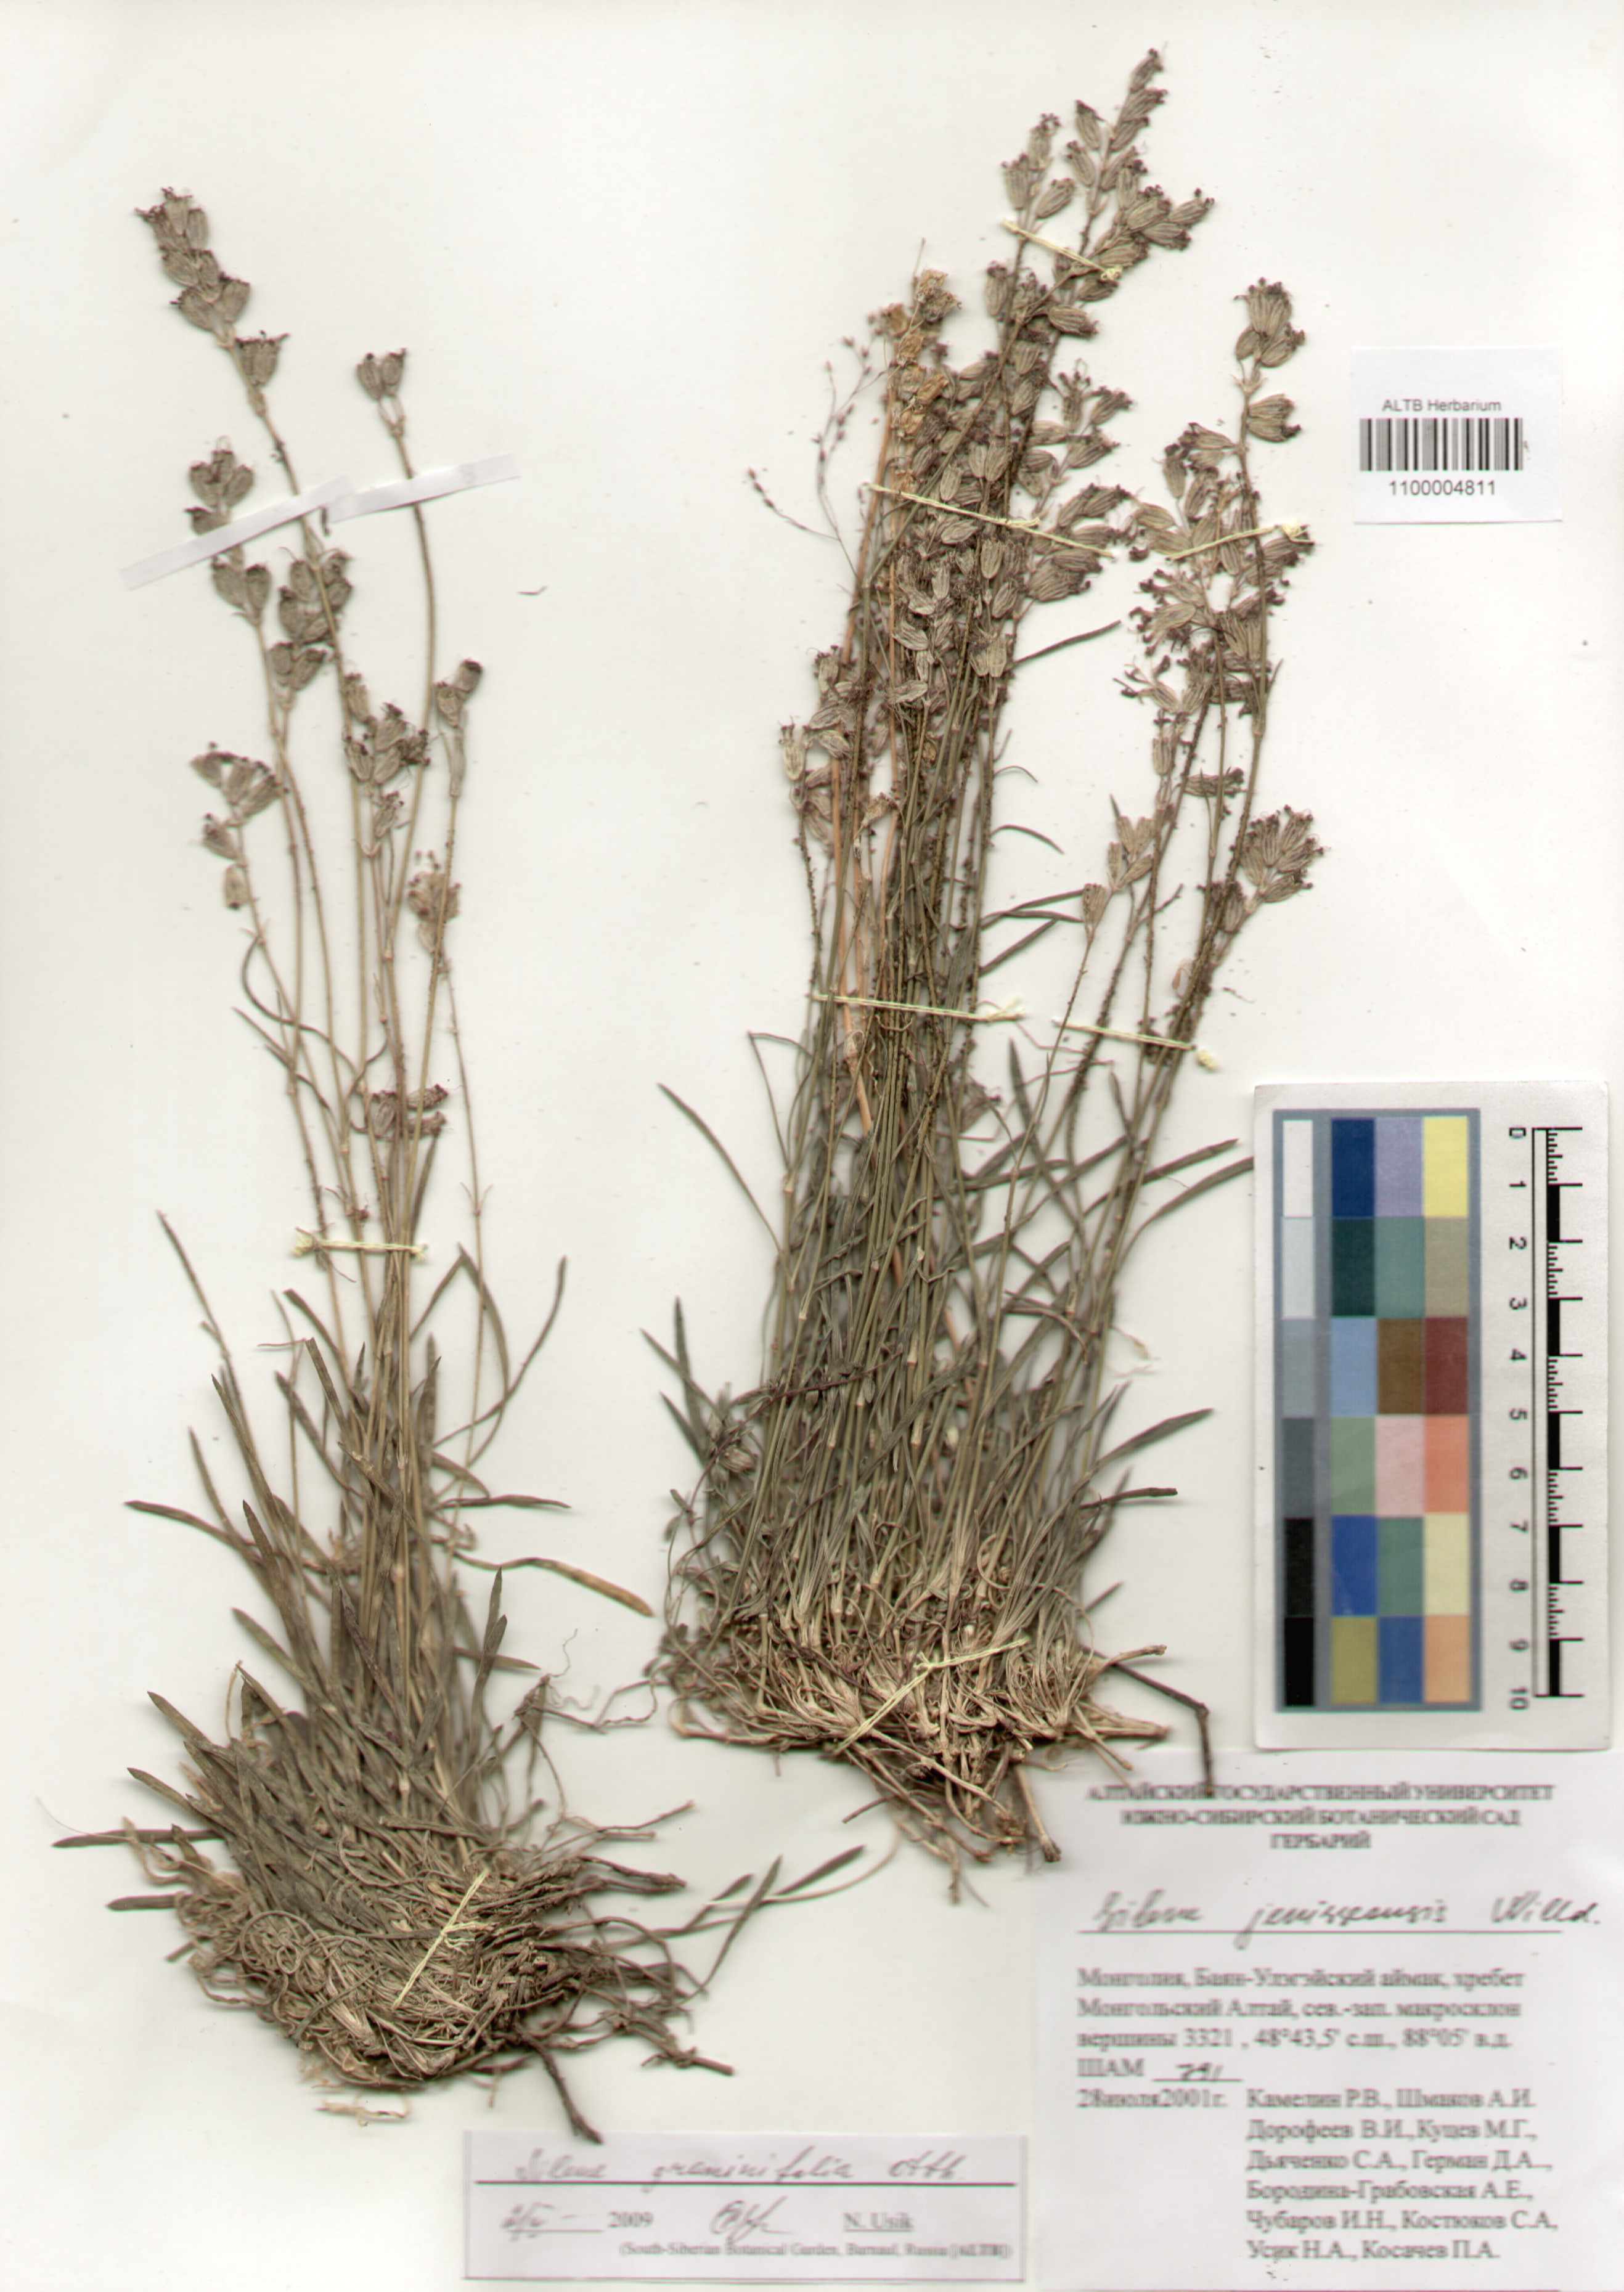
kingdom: Plantae
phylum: Tracheophyta
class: Magnoliopsida
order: Caryophyllales
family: Caryophyllaceae
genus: Silene
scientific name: Silene graminifolia
